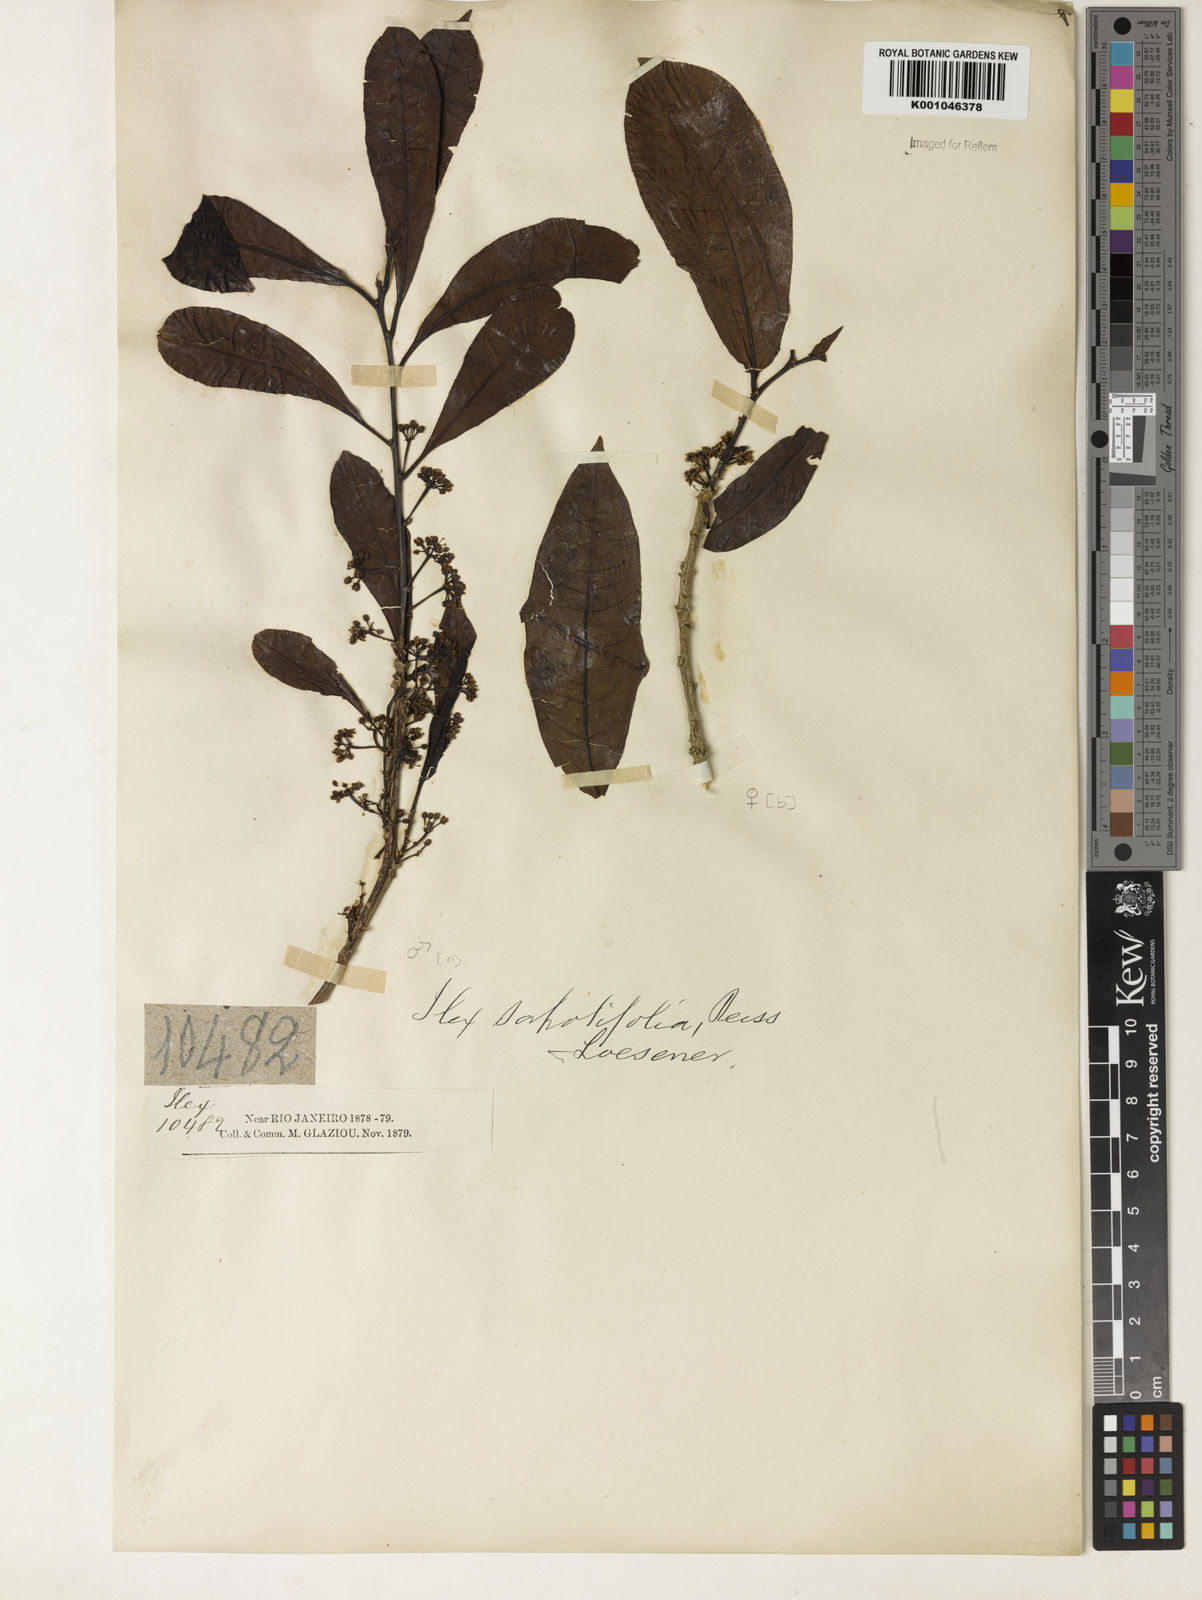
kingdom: Plantae
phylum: Tracheophyta
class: Magnoliopsida
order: Aquifoliales
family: Aquifoliaceae
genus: Ilex
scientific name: Ilex sapotifolia
